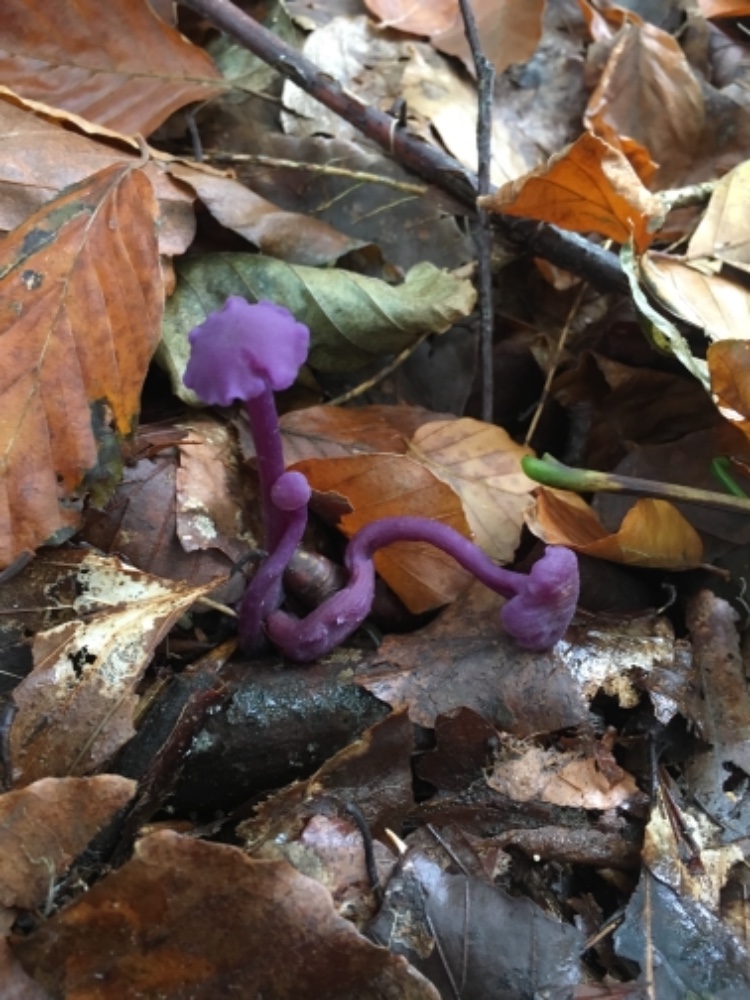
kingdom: Fungi
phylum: Basidiomycota
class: Agaricomycetes
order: Agaricales
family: Hydnangiaceae
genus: Laccaria
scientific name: Laccaria amethystina
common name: violet ametysthat
